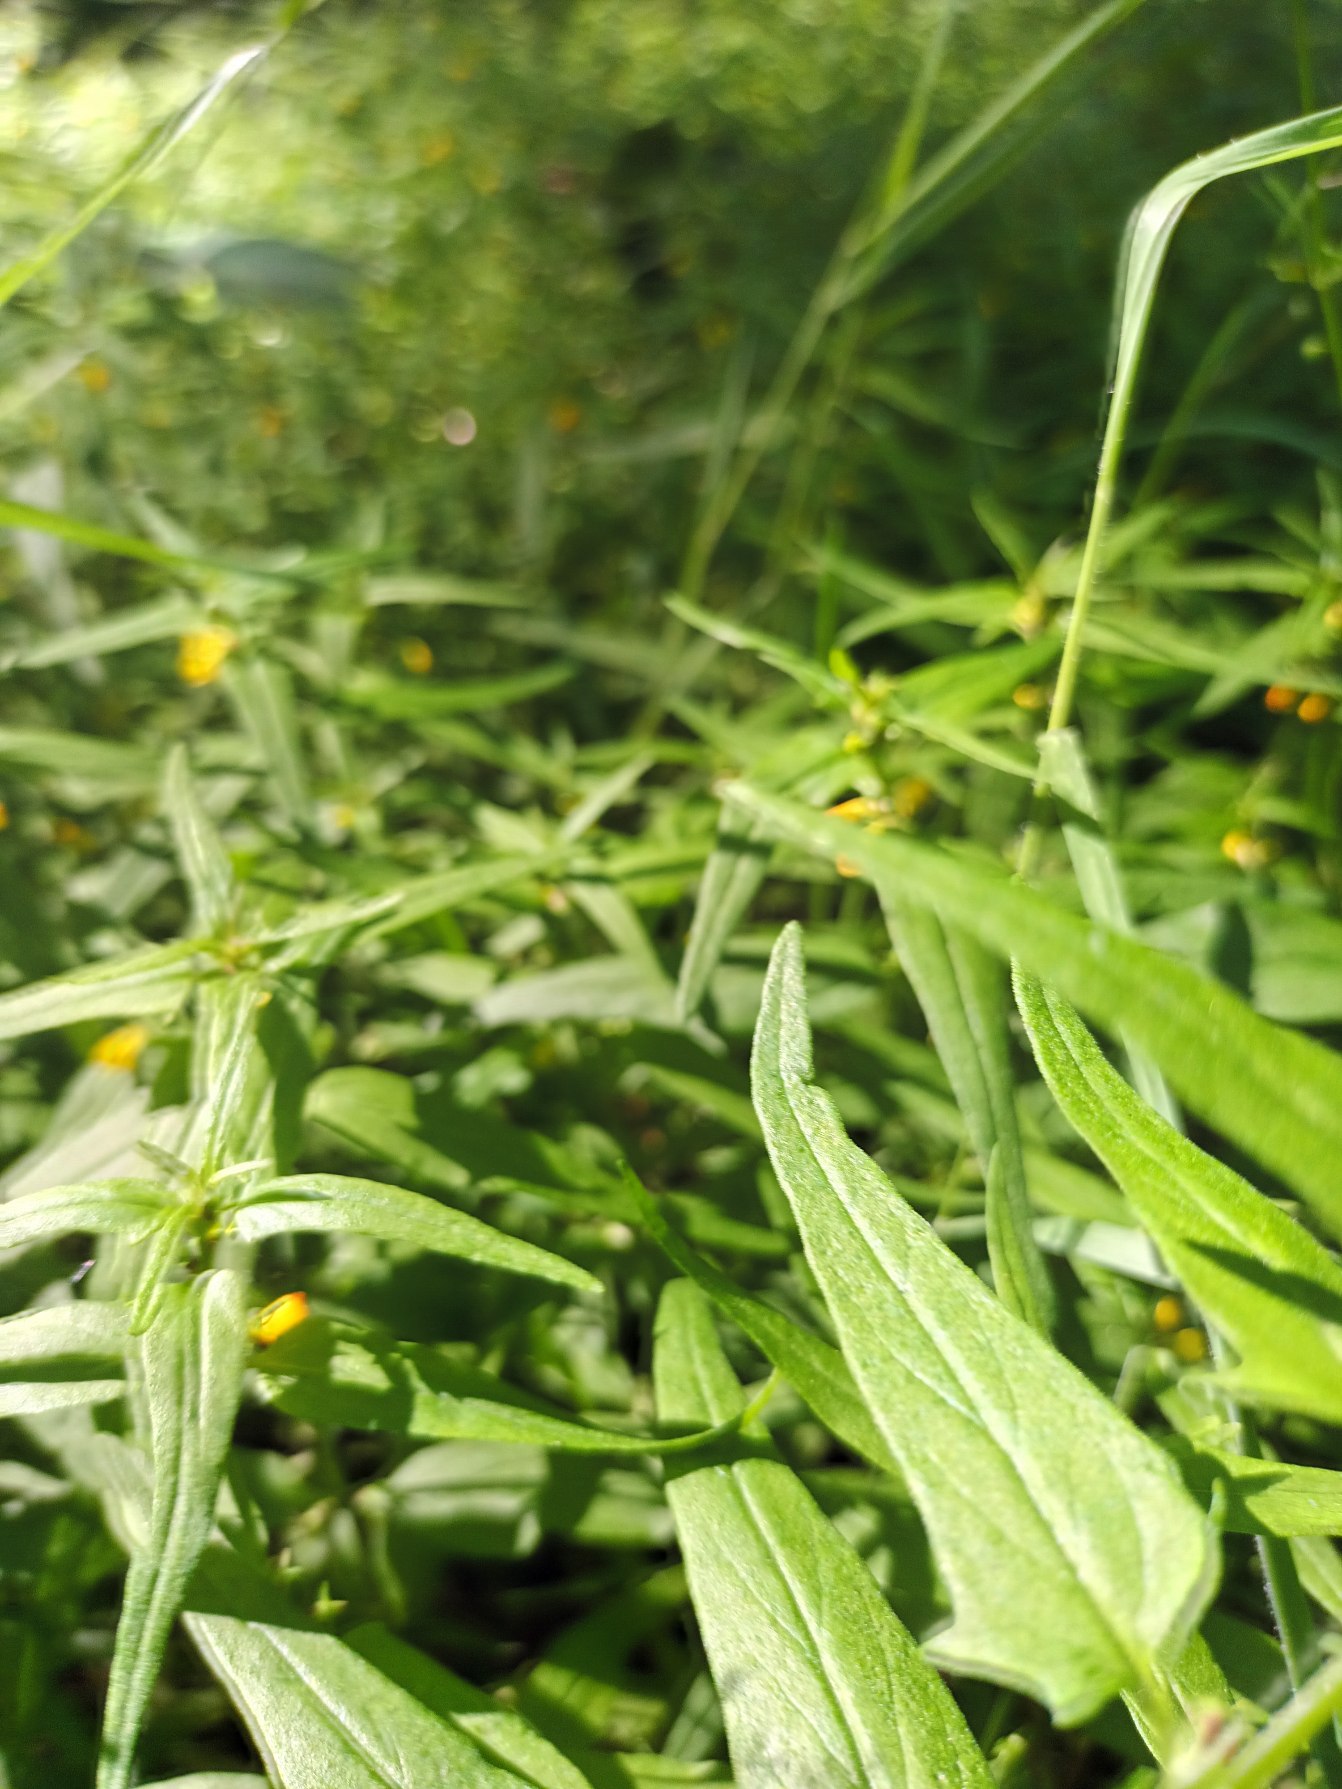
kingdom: Plantae
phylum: Tracheophyta
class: Magnoliopsida
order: Lamiales
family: Orobanchaceae
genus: Melampyrum
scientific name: Melampyrum sylvaticum
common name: Skov-kohvede
